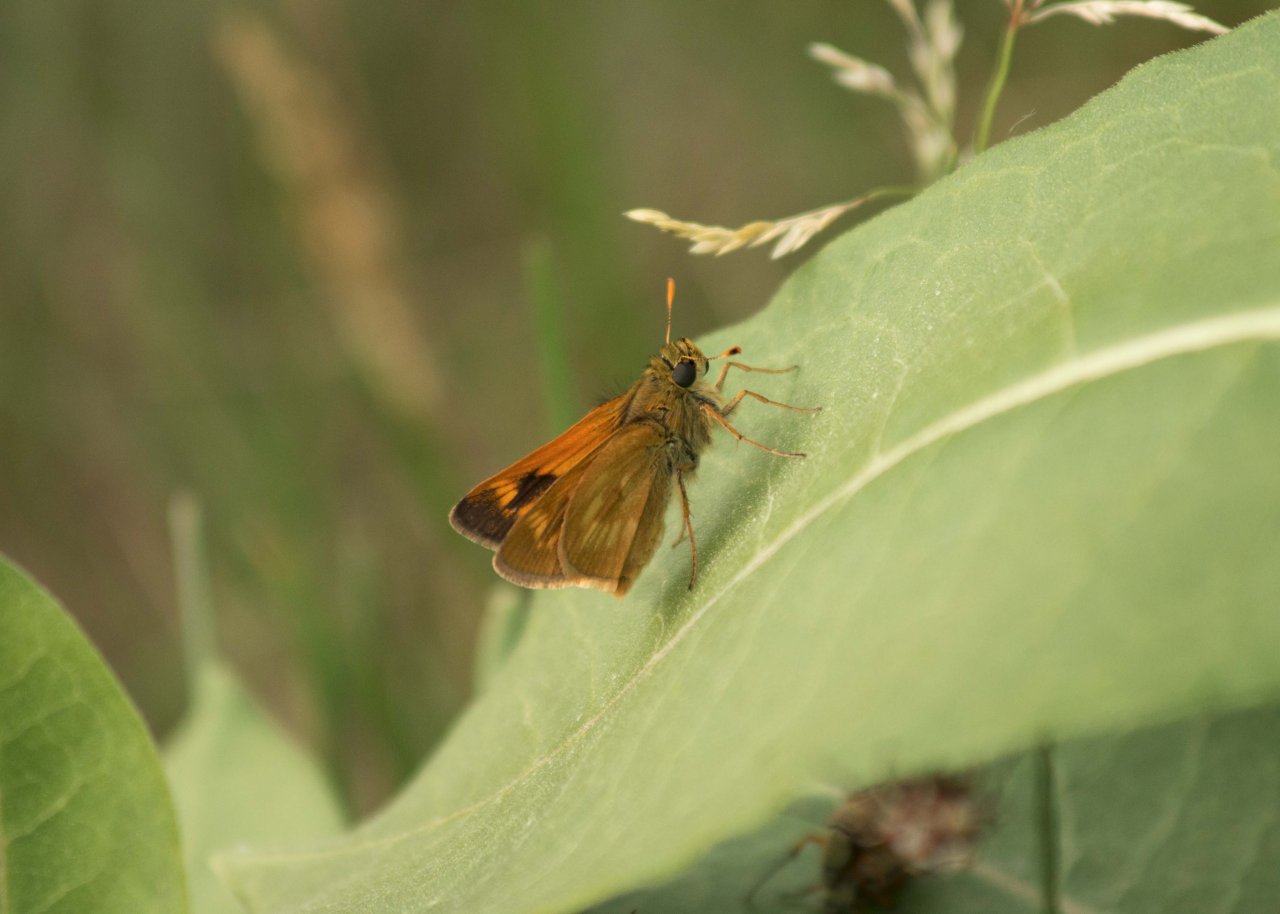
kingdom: Animalia
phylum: Arthropoda
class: Insecta
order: Lepidoptera
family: Hesperiidae
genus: Polites
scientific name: Polites
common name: Long Dash Skipper
